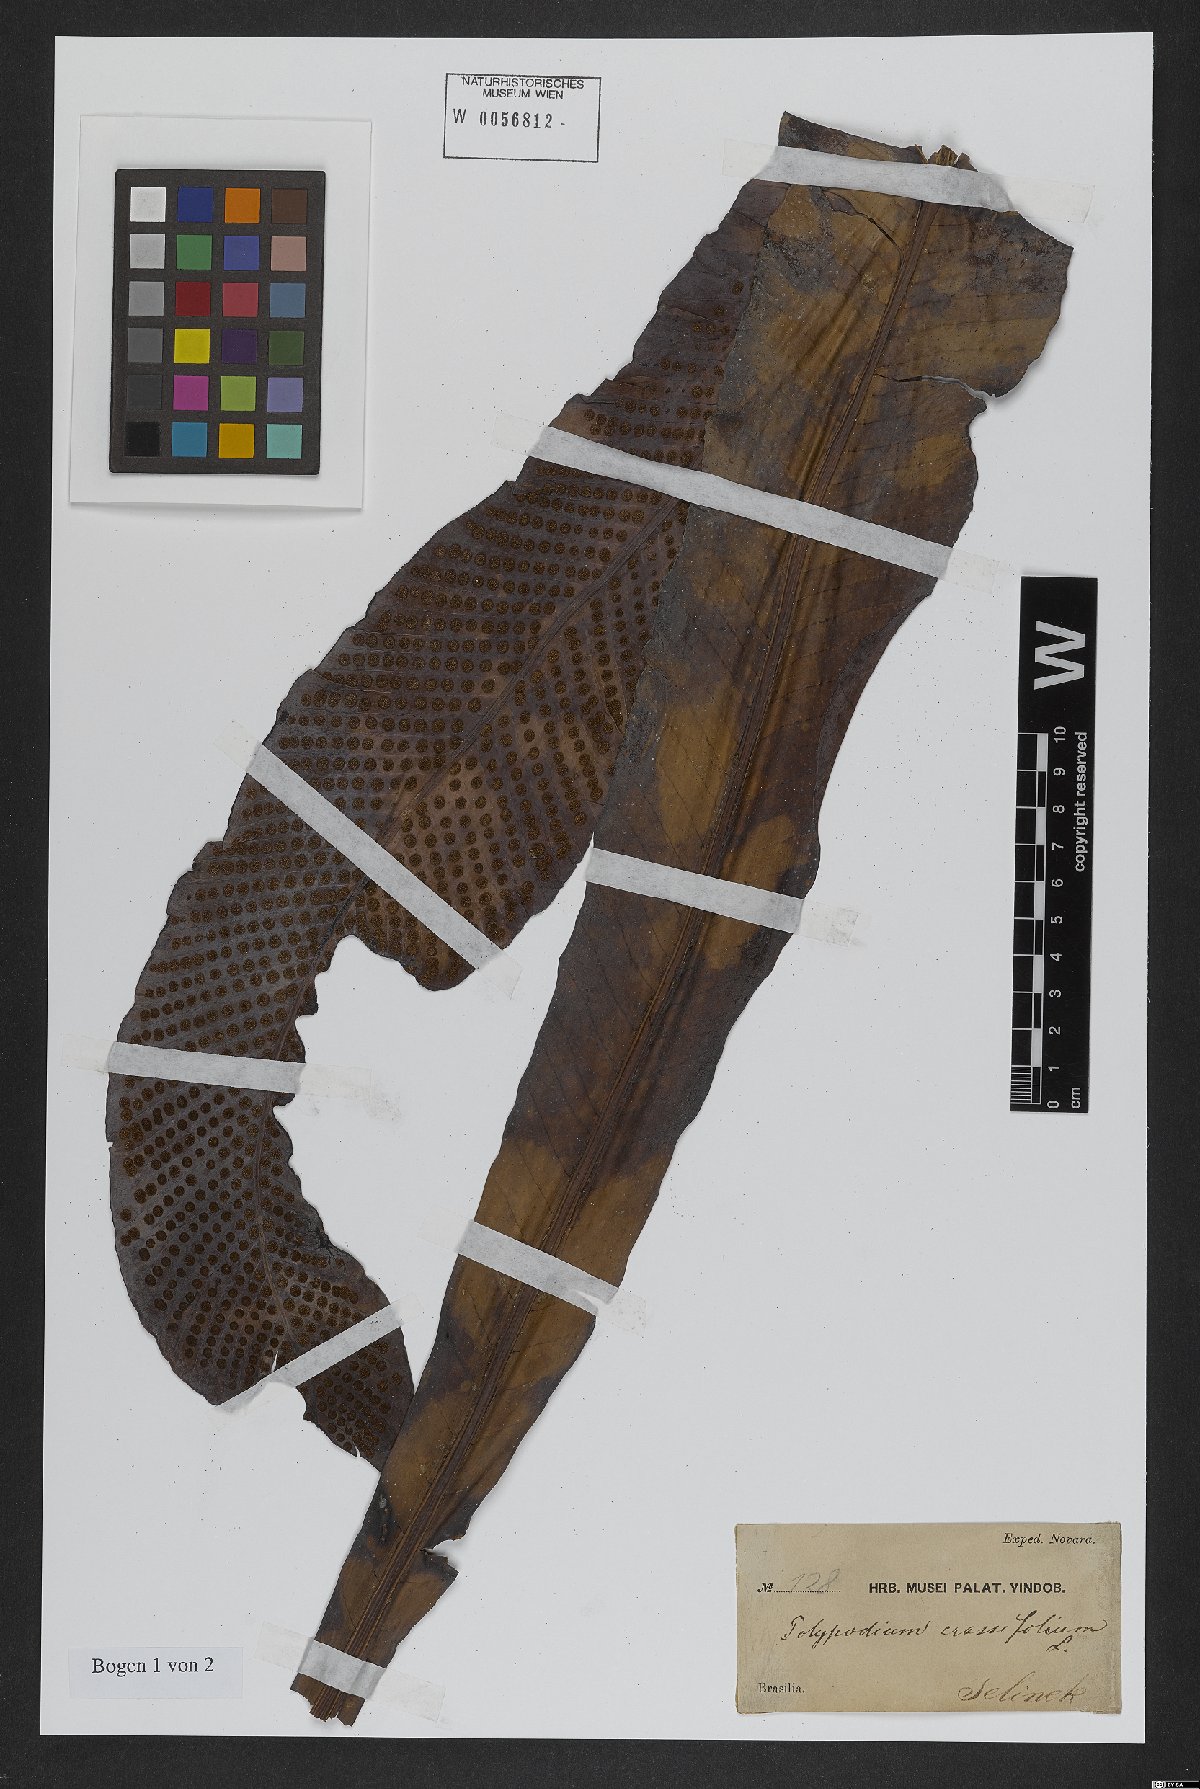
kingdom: Plantae
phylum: Tracheophyta
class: Polypodiopsida
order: Polypodiales
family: Polypodiaceae
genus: Niphidium
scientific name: Niphidium crassifolium
